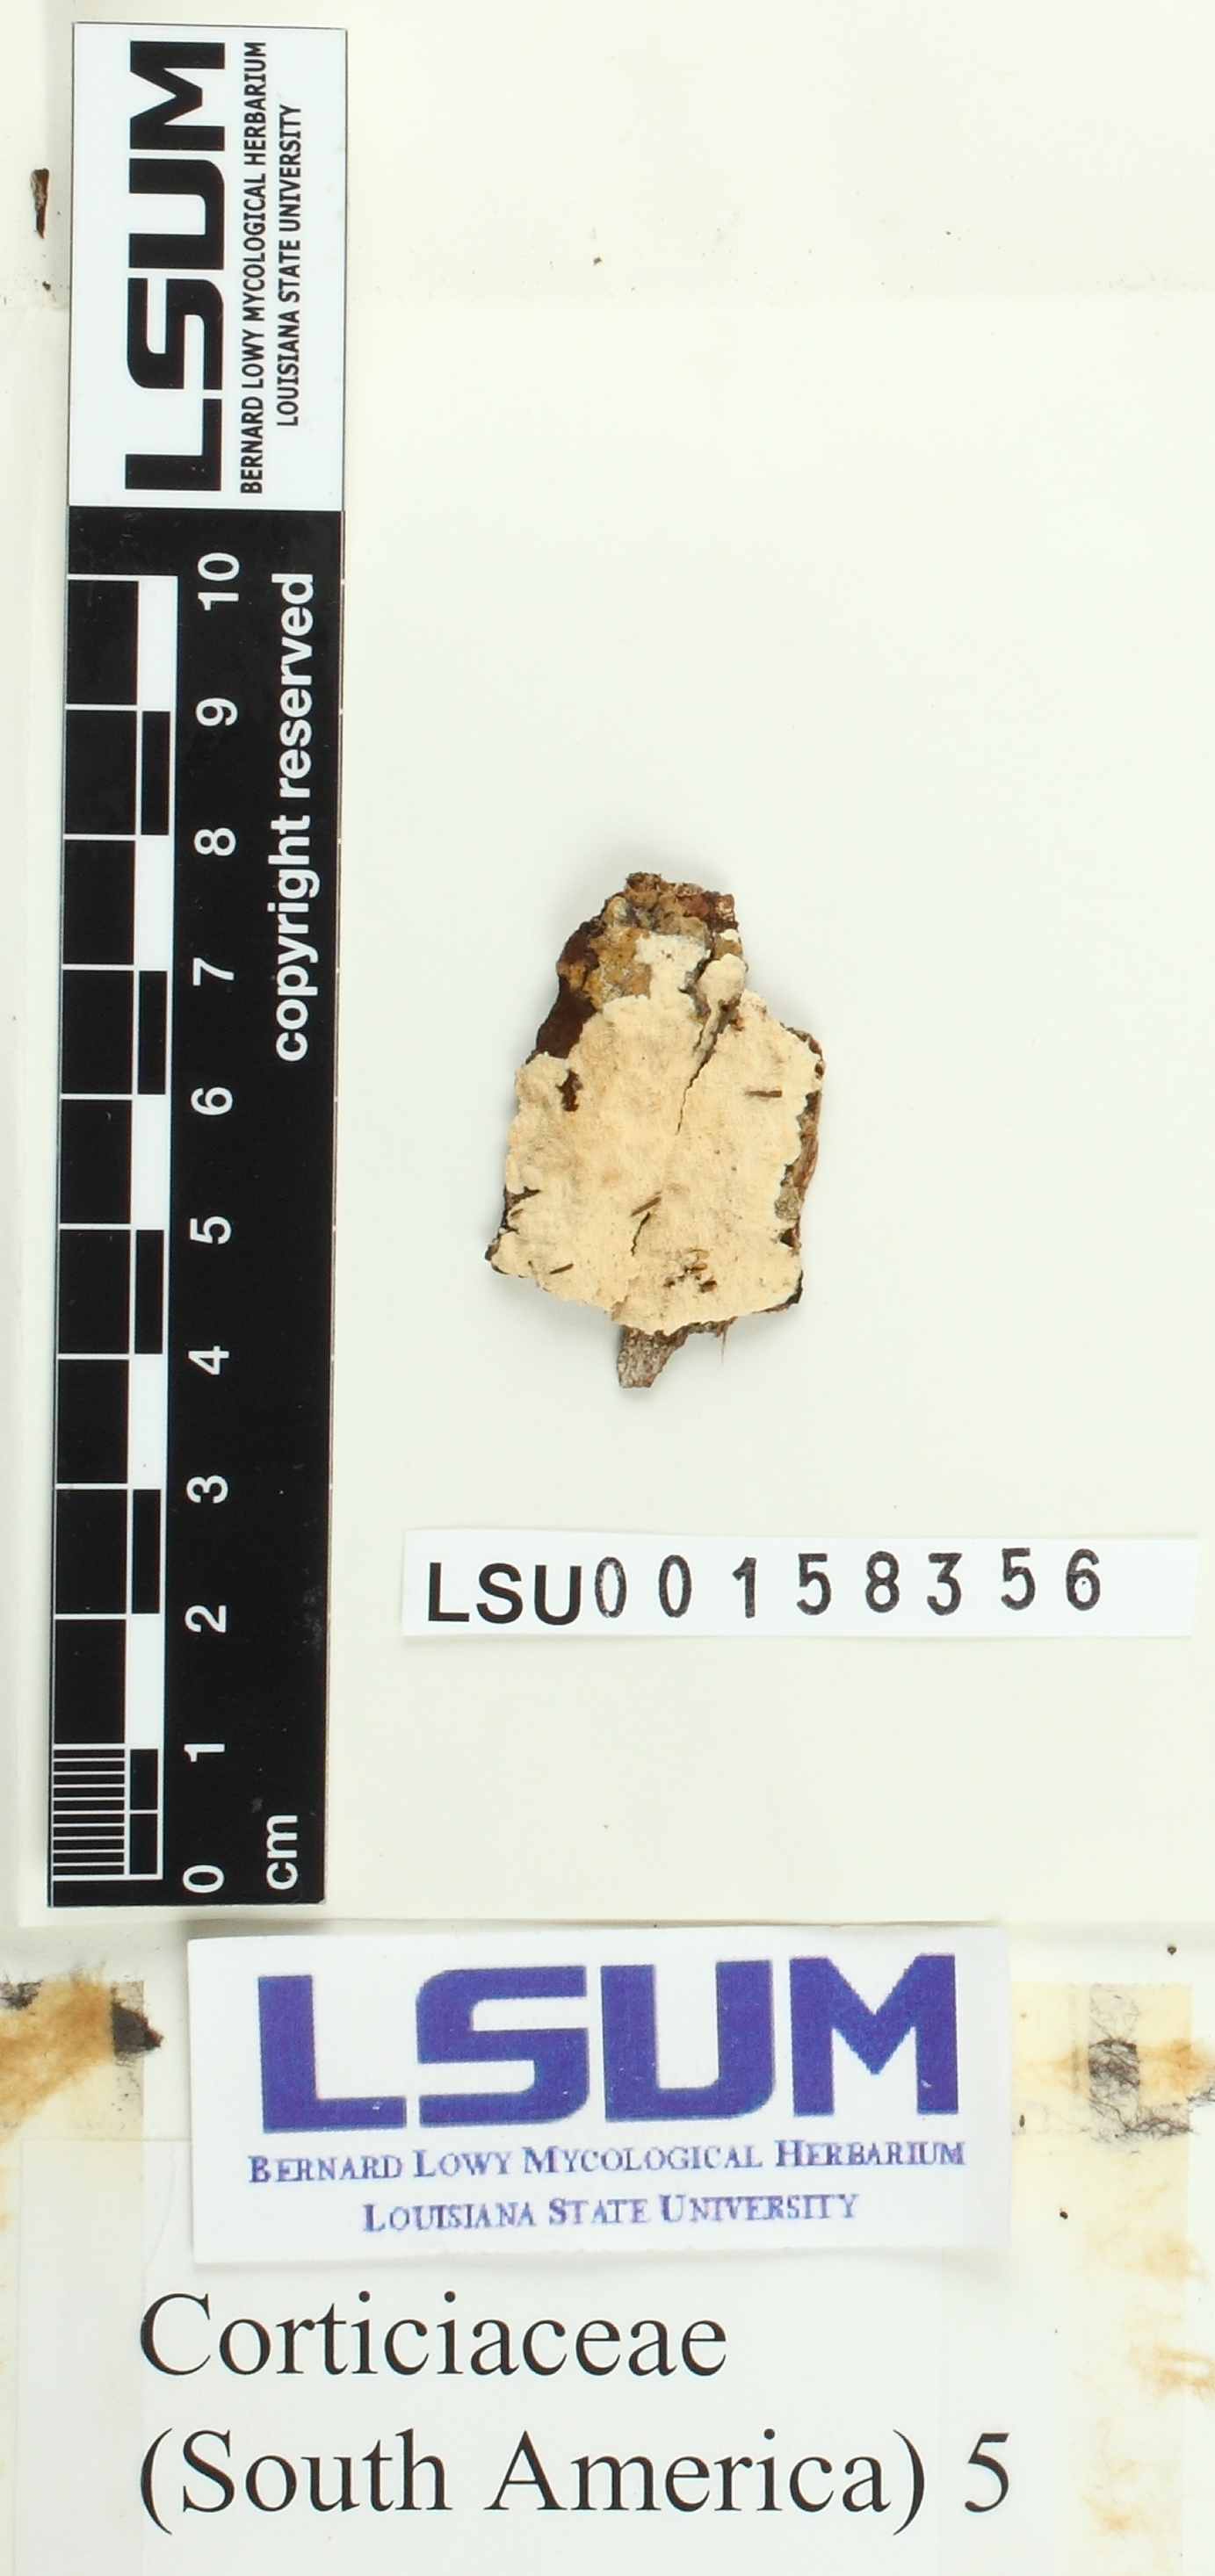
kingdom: Fungi
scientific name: Fungi
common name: Fungi
